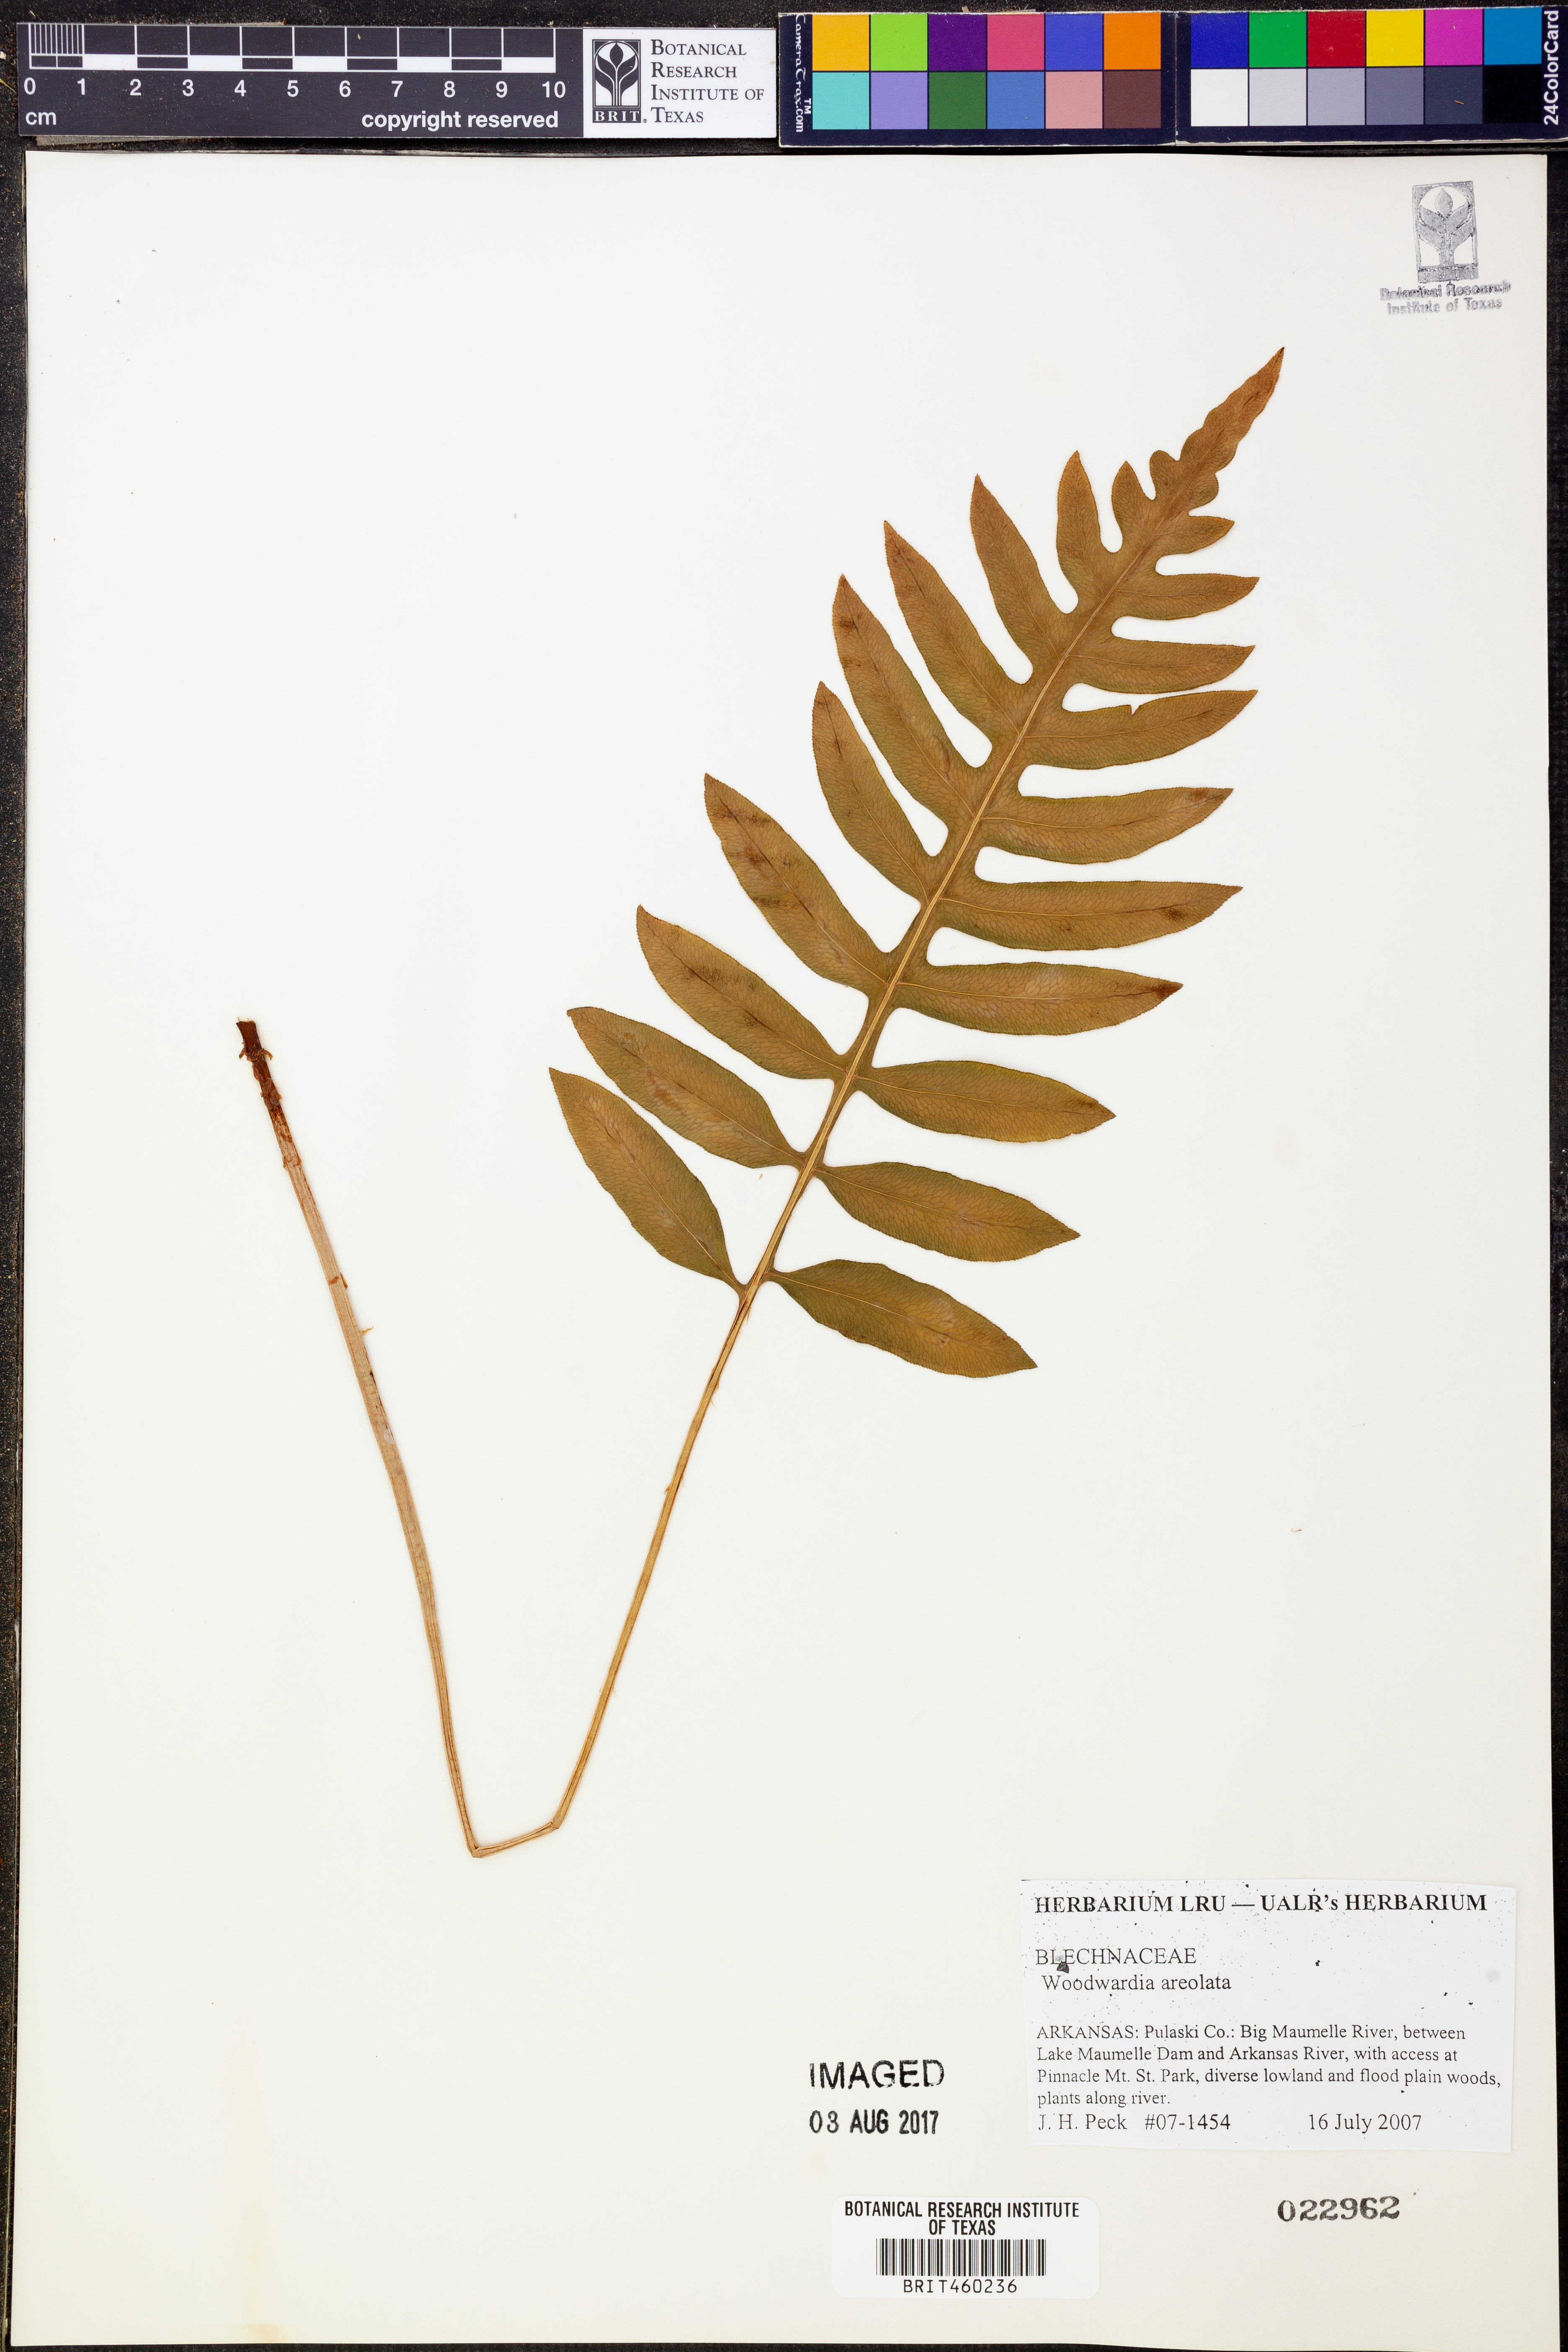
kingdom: Plantae
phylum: Tracheophyta
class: Polypodiopsida
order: Polypodiales
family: Blechnaceae
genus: Lorinseria
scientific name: Lorinseria areolata
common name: Dwarf chain fern
